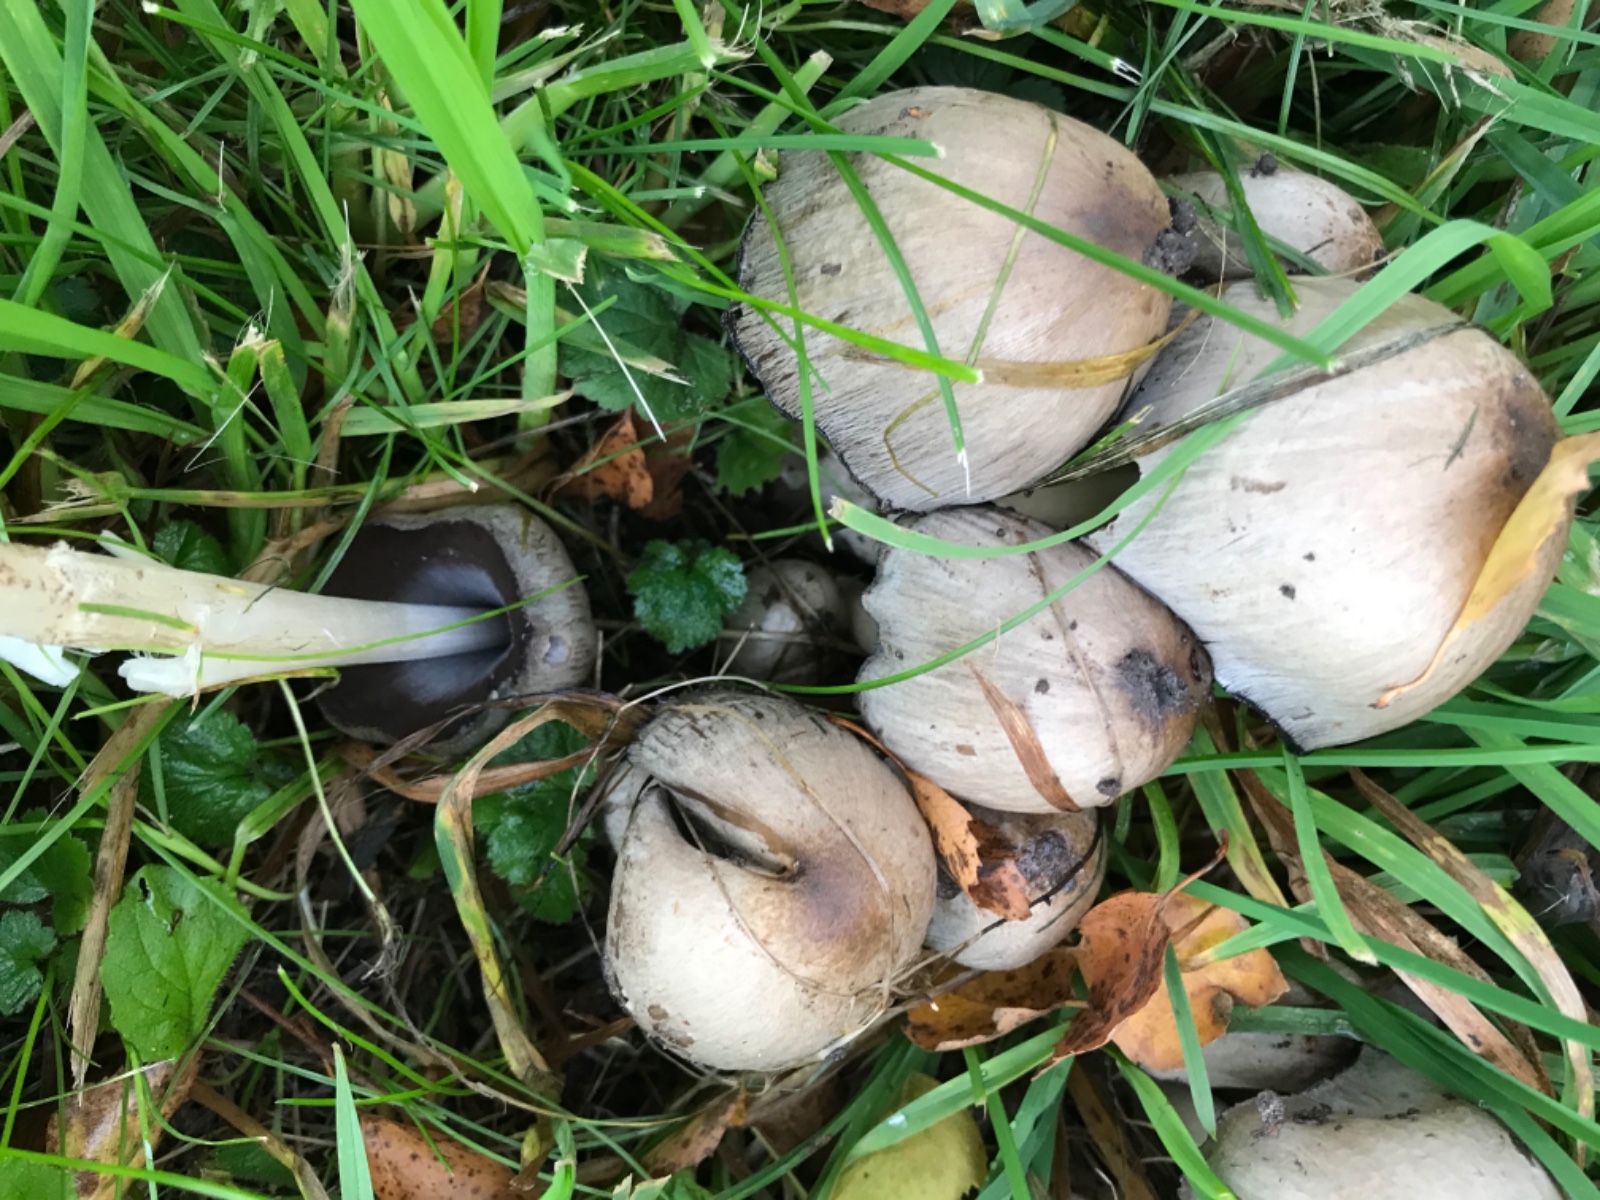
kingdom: Fungi
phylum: Basidiomycota
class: Agaricomycetes
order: Agaricales
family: Psathyrellaceae
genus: Coprinopsis
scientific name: Coprinopsis atramentaria
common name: almindelig blækhat
